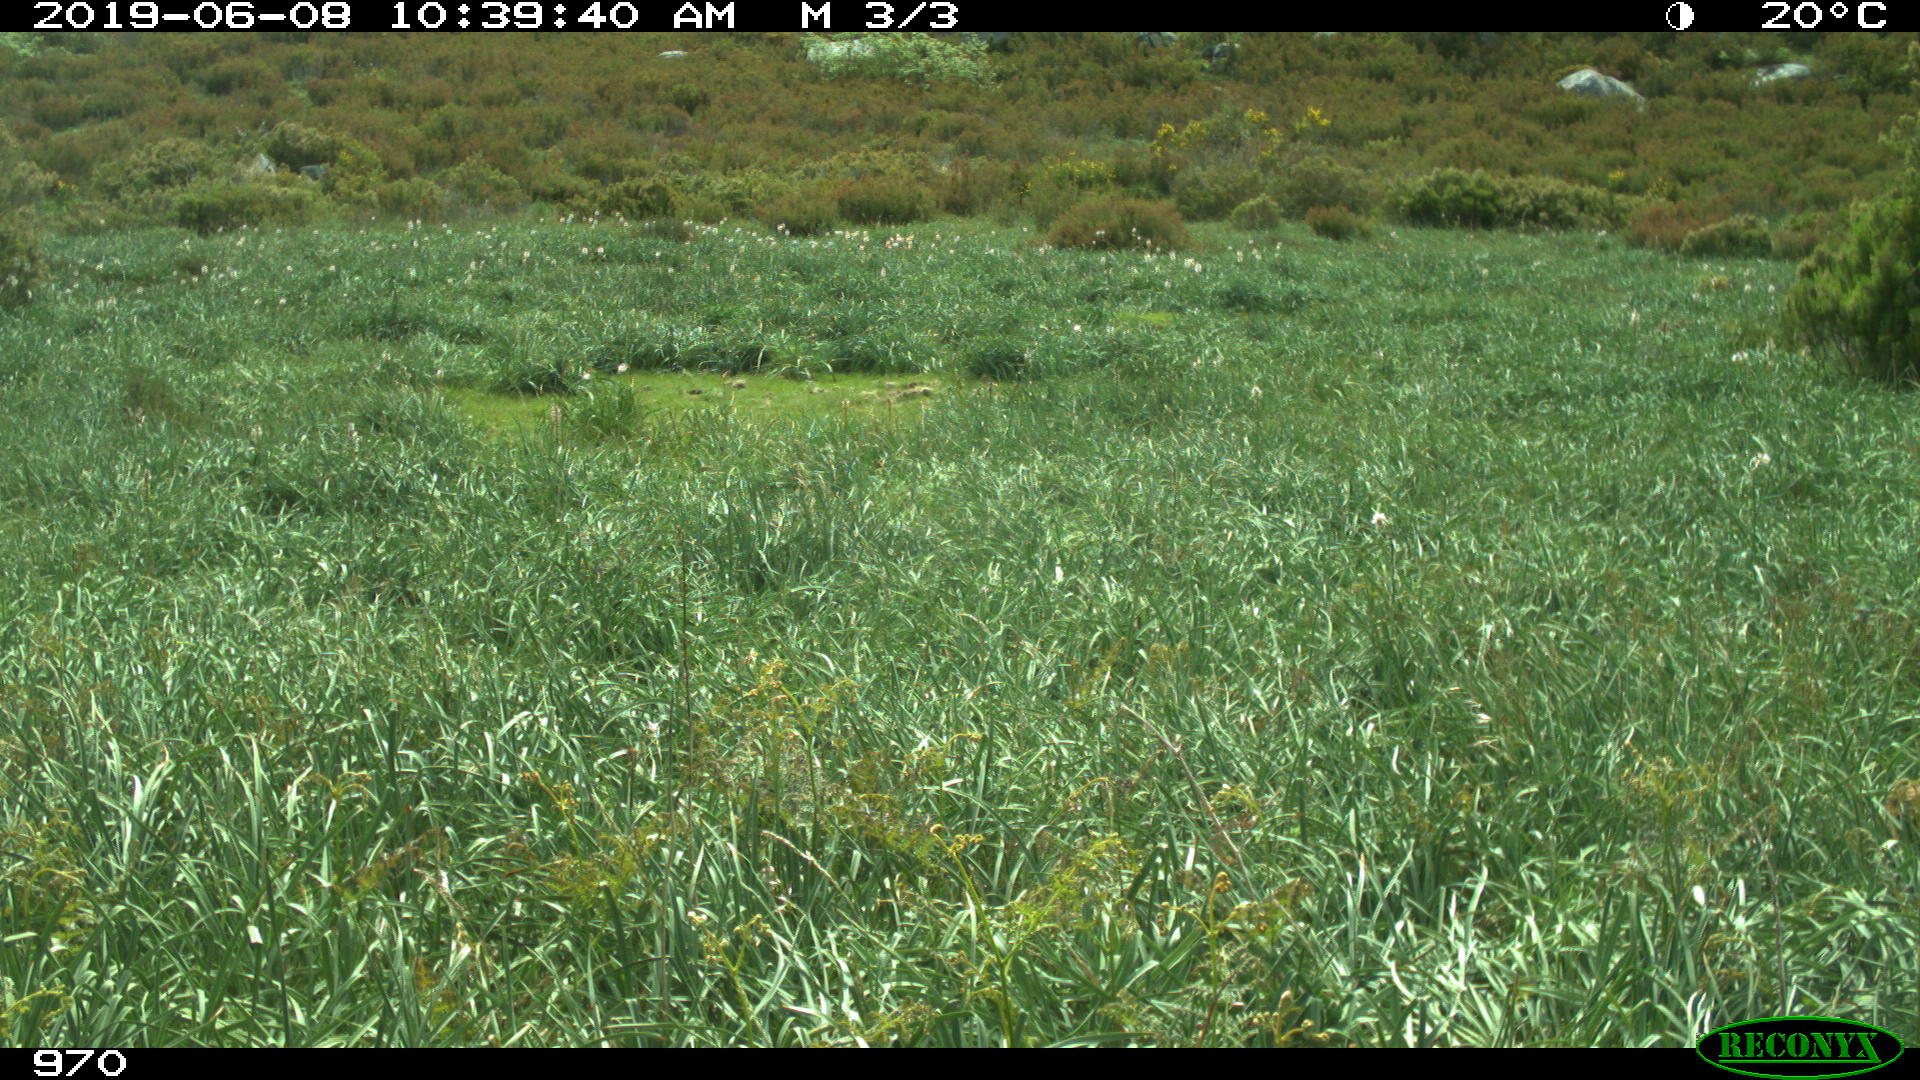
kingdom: Animalia
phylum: Chordata
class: Mammalia
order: Artiodactyla
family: Suidae
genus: Sus
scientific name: Sus scrofa
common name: Wild boar
